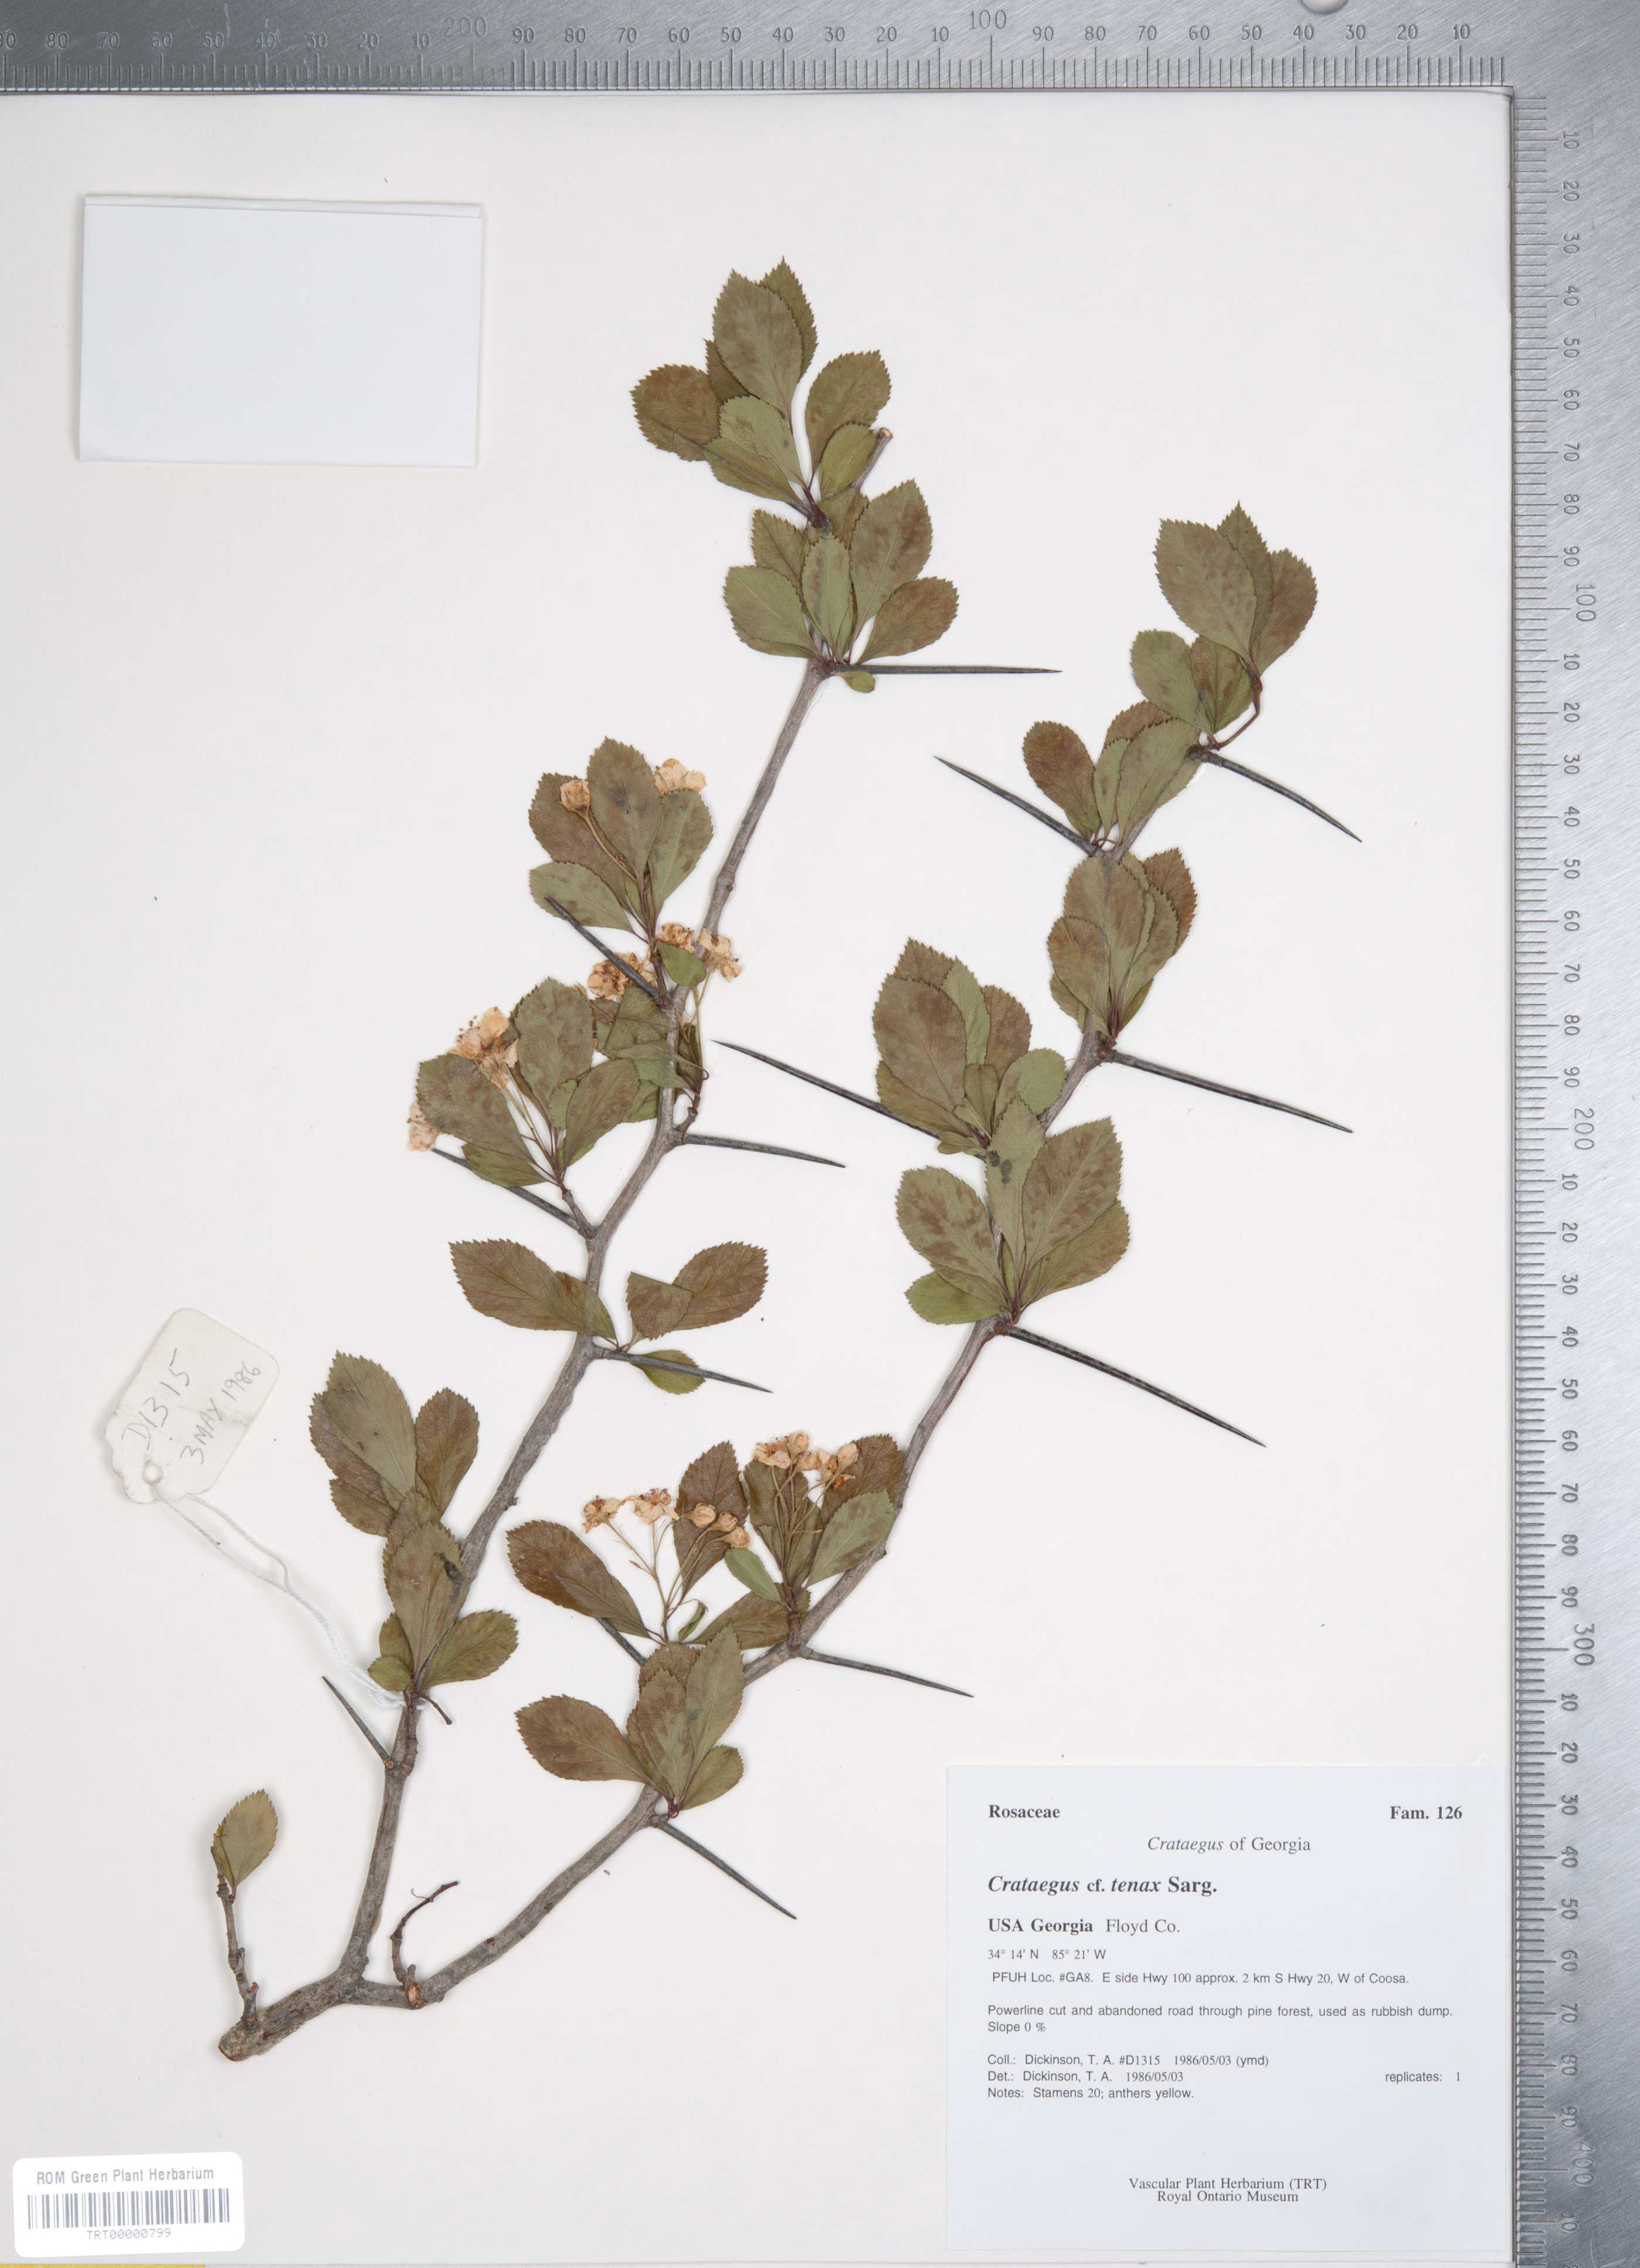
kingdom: Plantae
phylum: Tracheophyta
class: Magnoliopsida
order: Rosales
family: Rosaceae
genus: Crataegus
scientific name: Crataegus crus-galli
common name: Cockspurthorn
